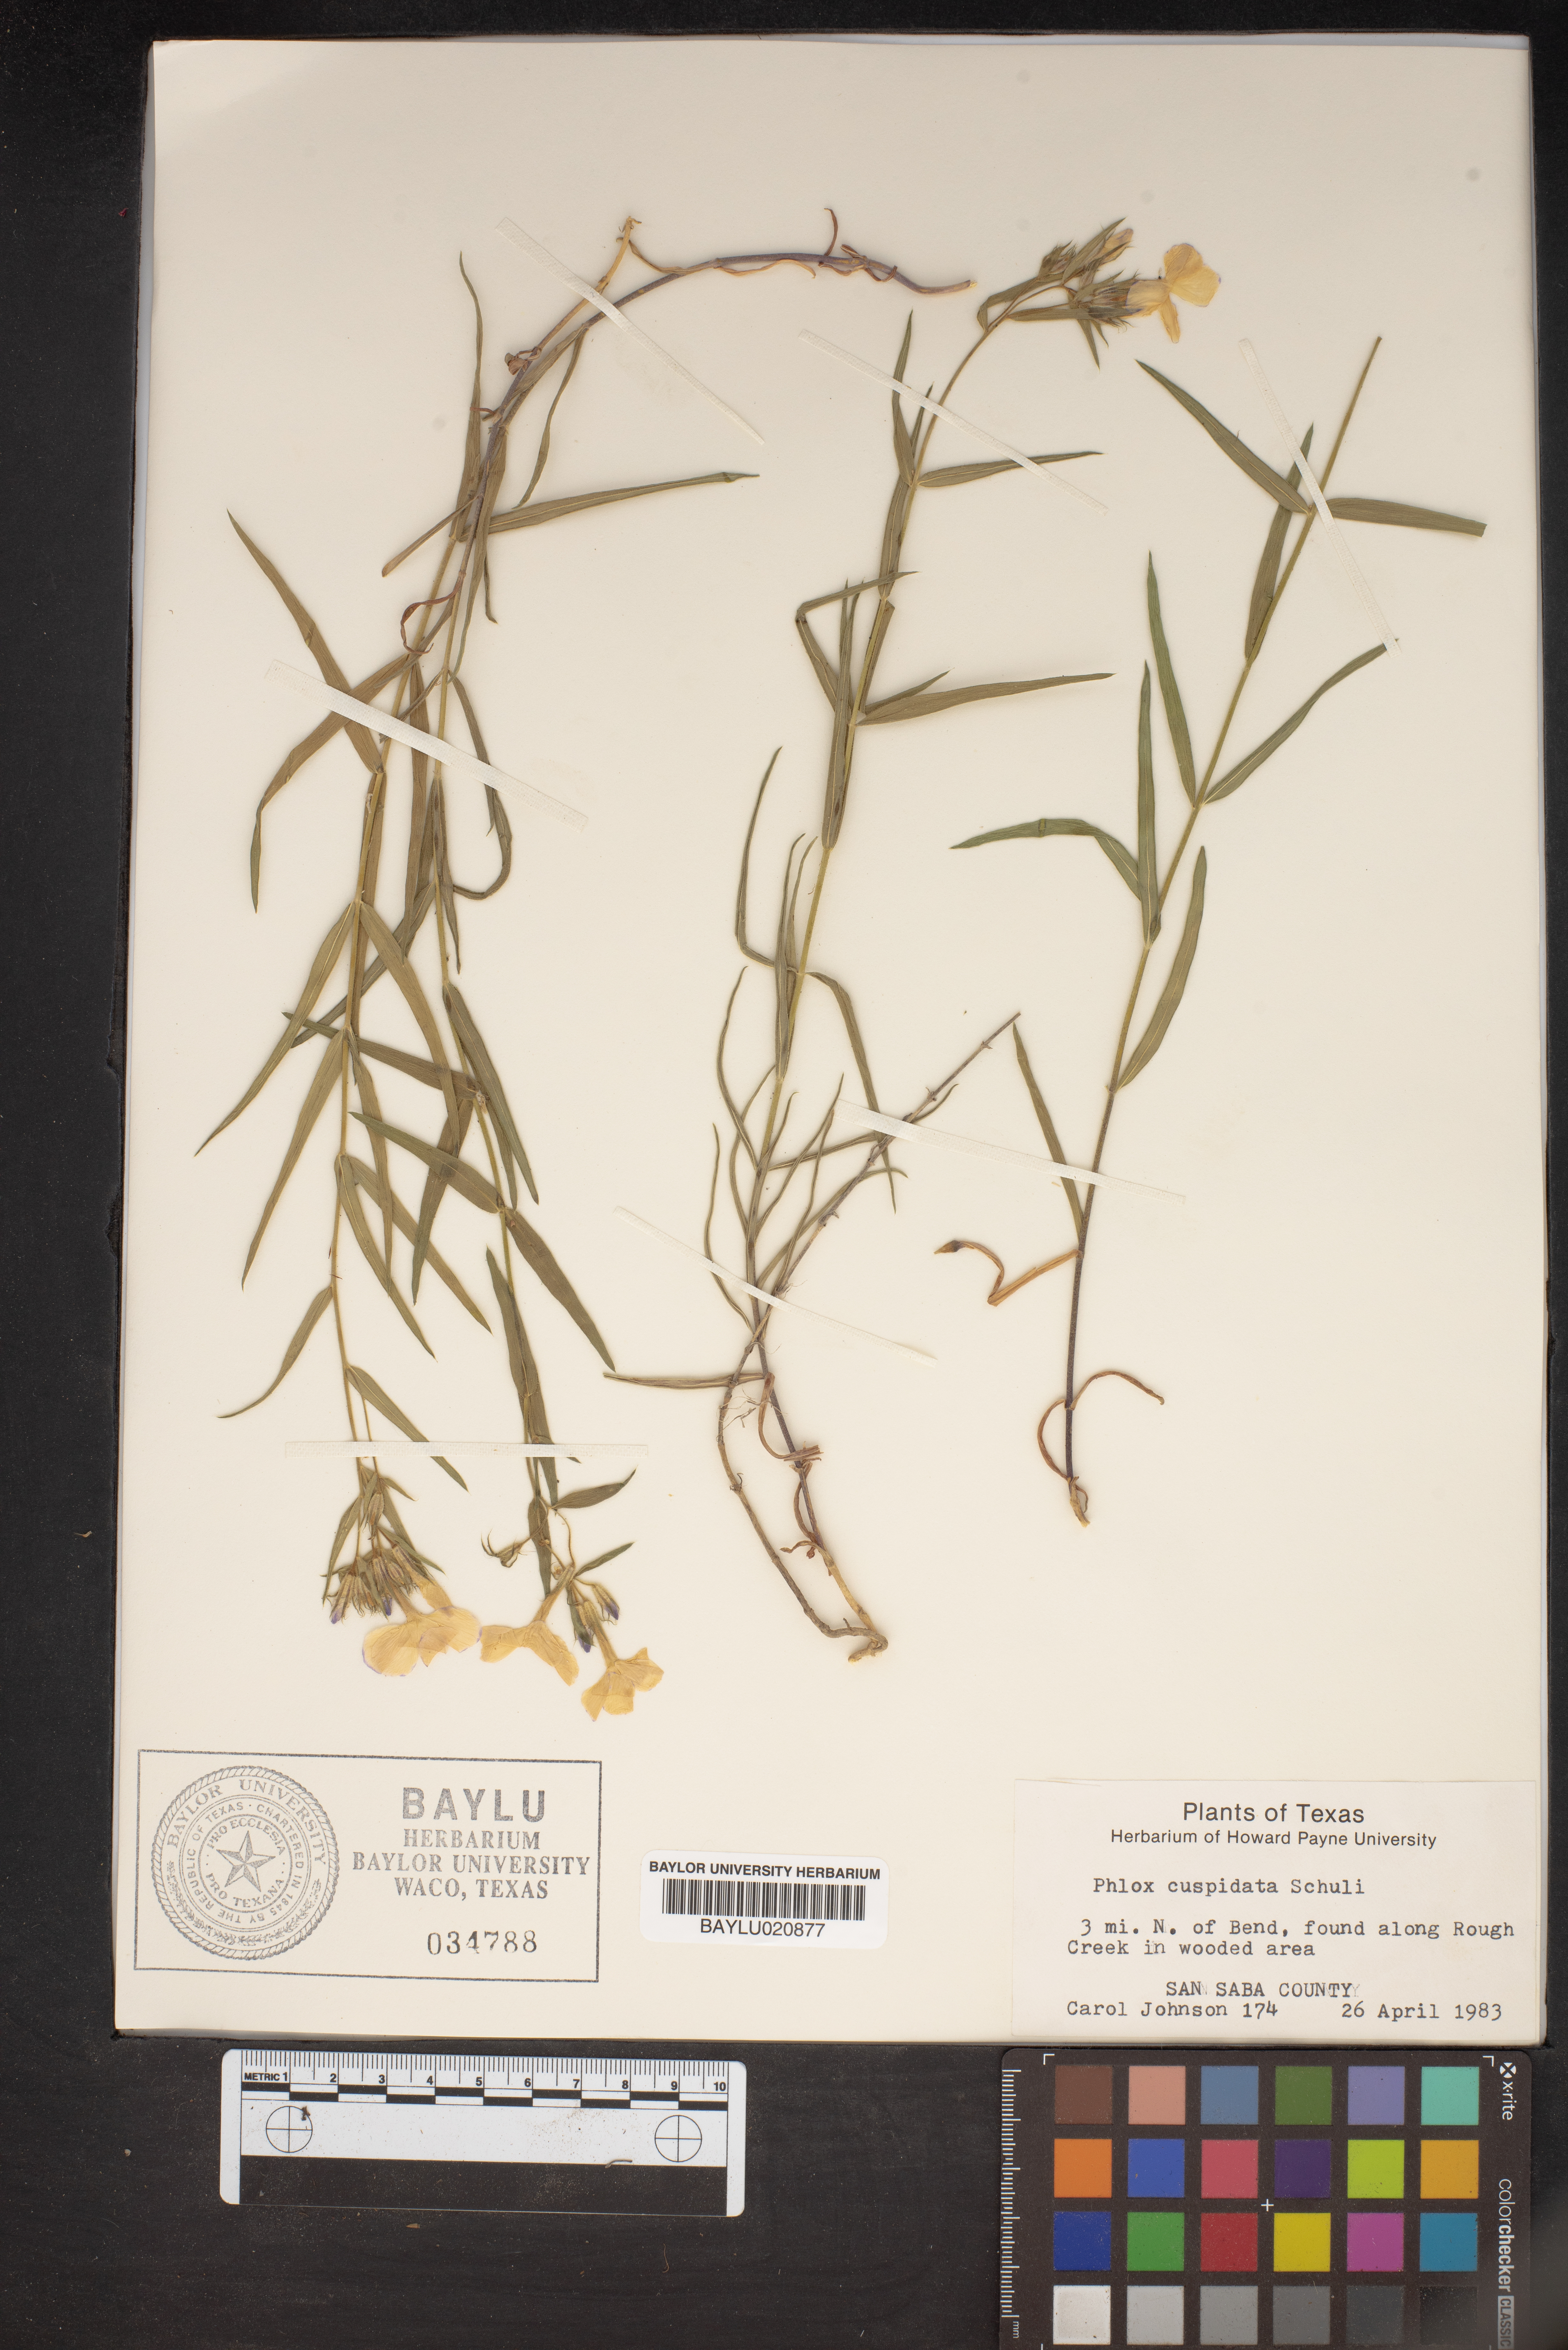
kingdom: Plantae
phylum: Tracheophyta
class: Magnoliopsida
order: Ericales
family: Polemoniaceae
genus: Phlox
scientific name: Phlox cuspidata
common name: Pointed phlox
